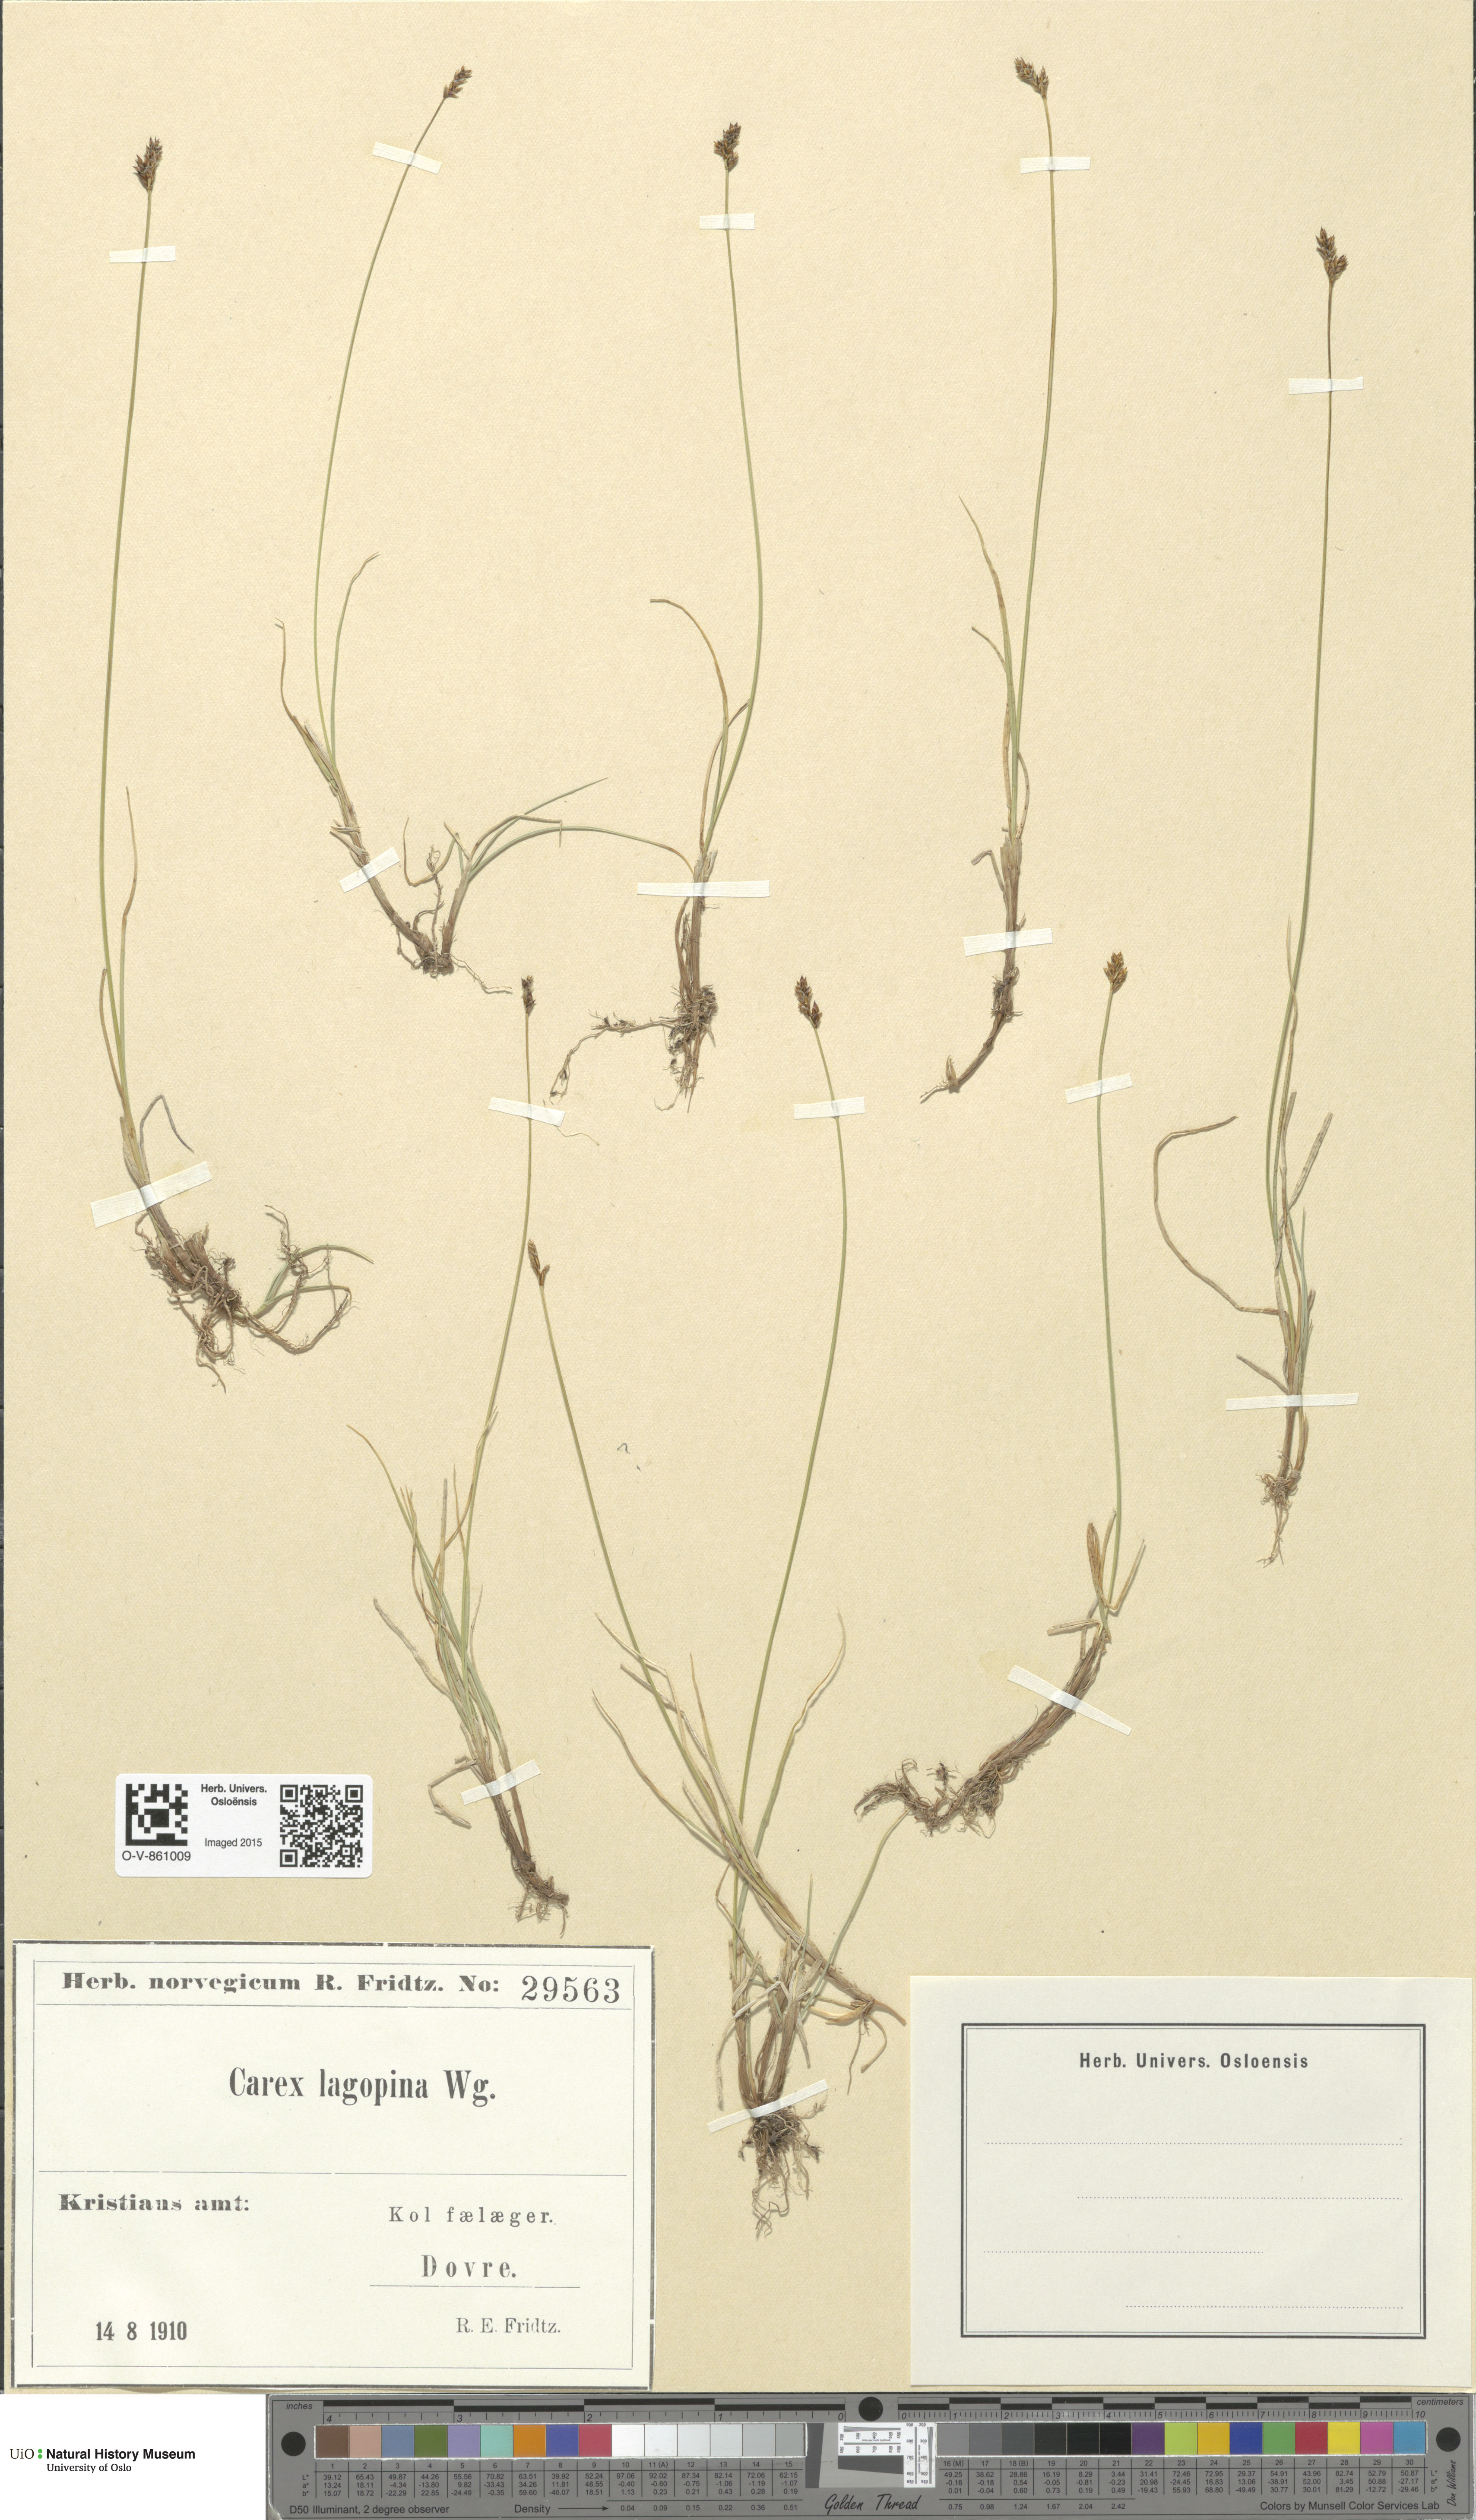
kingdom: Plantae
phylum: Tracheophyta
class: Liliopsida
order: Poales
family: Cyperaceae
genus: Carex
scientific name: Carex lachenalii
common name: Hare's-foot sedge
